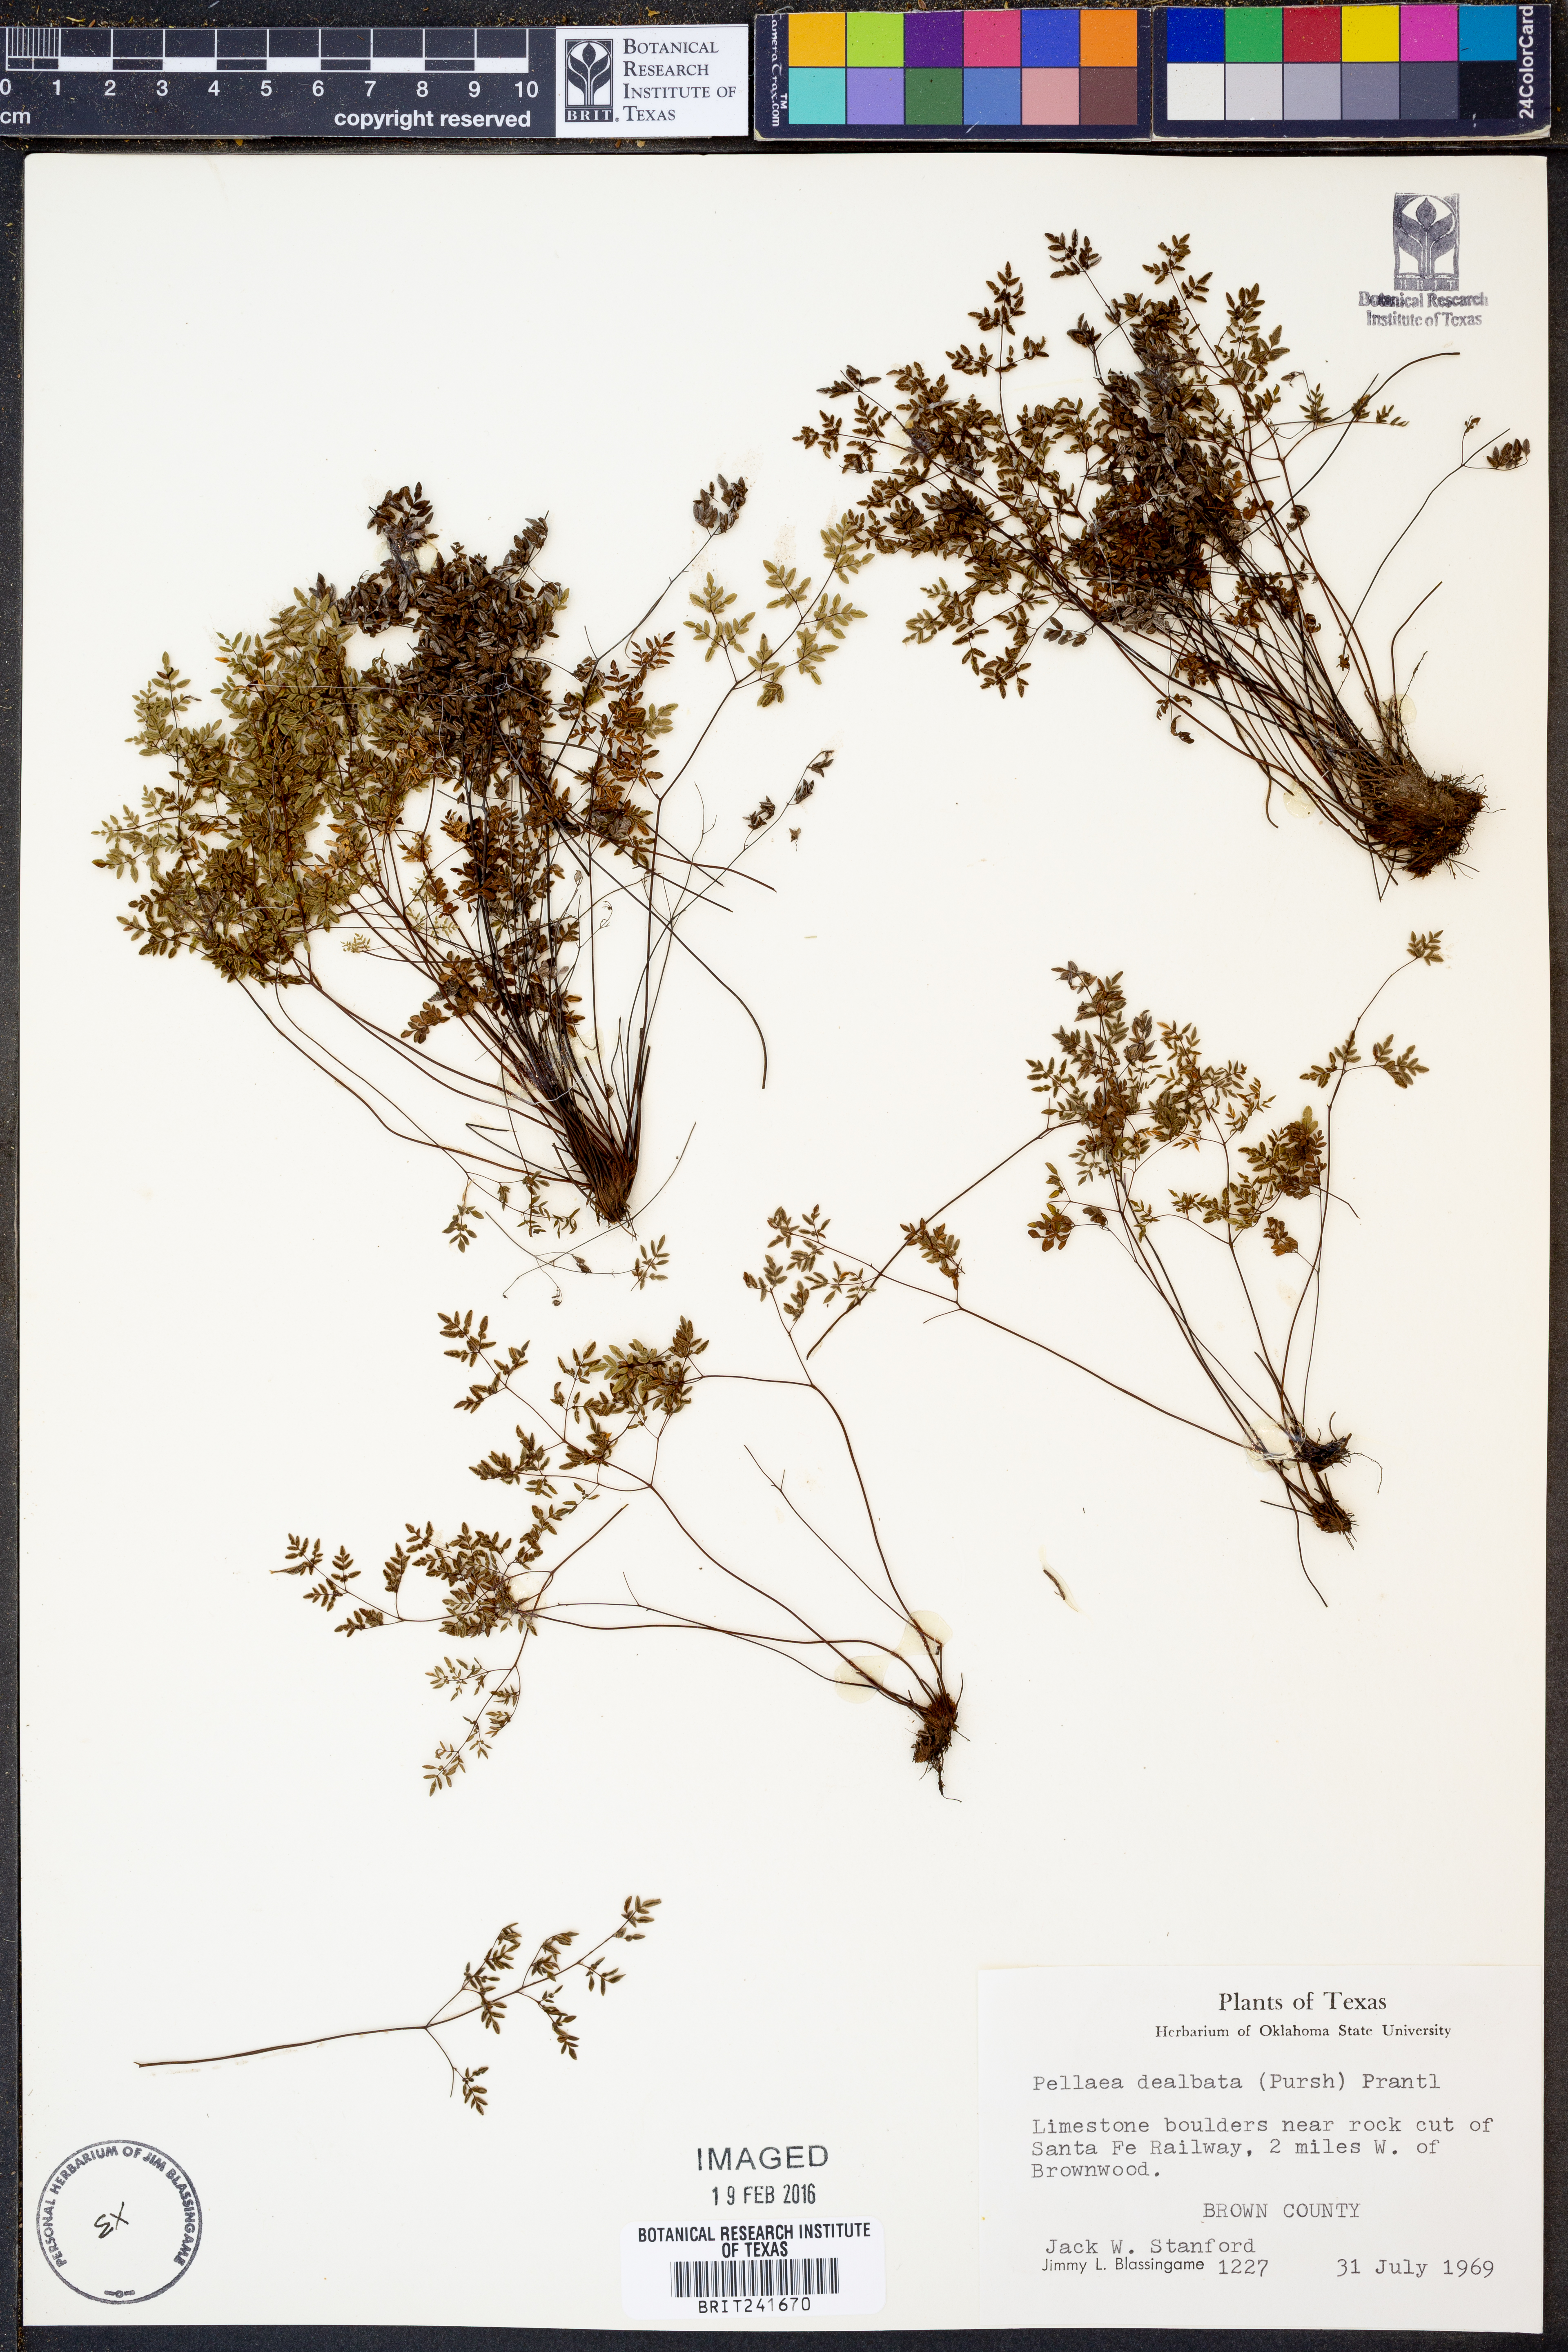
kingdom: Plantae
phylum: Tracheophyta
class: Polypodiopsida
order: Polypodiales
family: Pteridaceae
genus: Argyrochosma
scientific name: Argyrochosma dealbata
